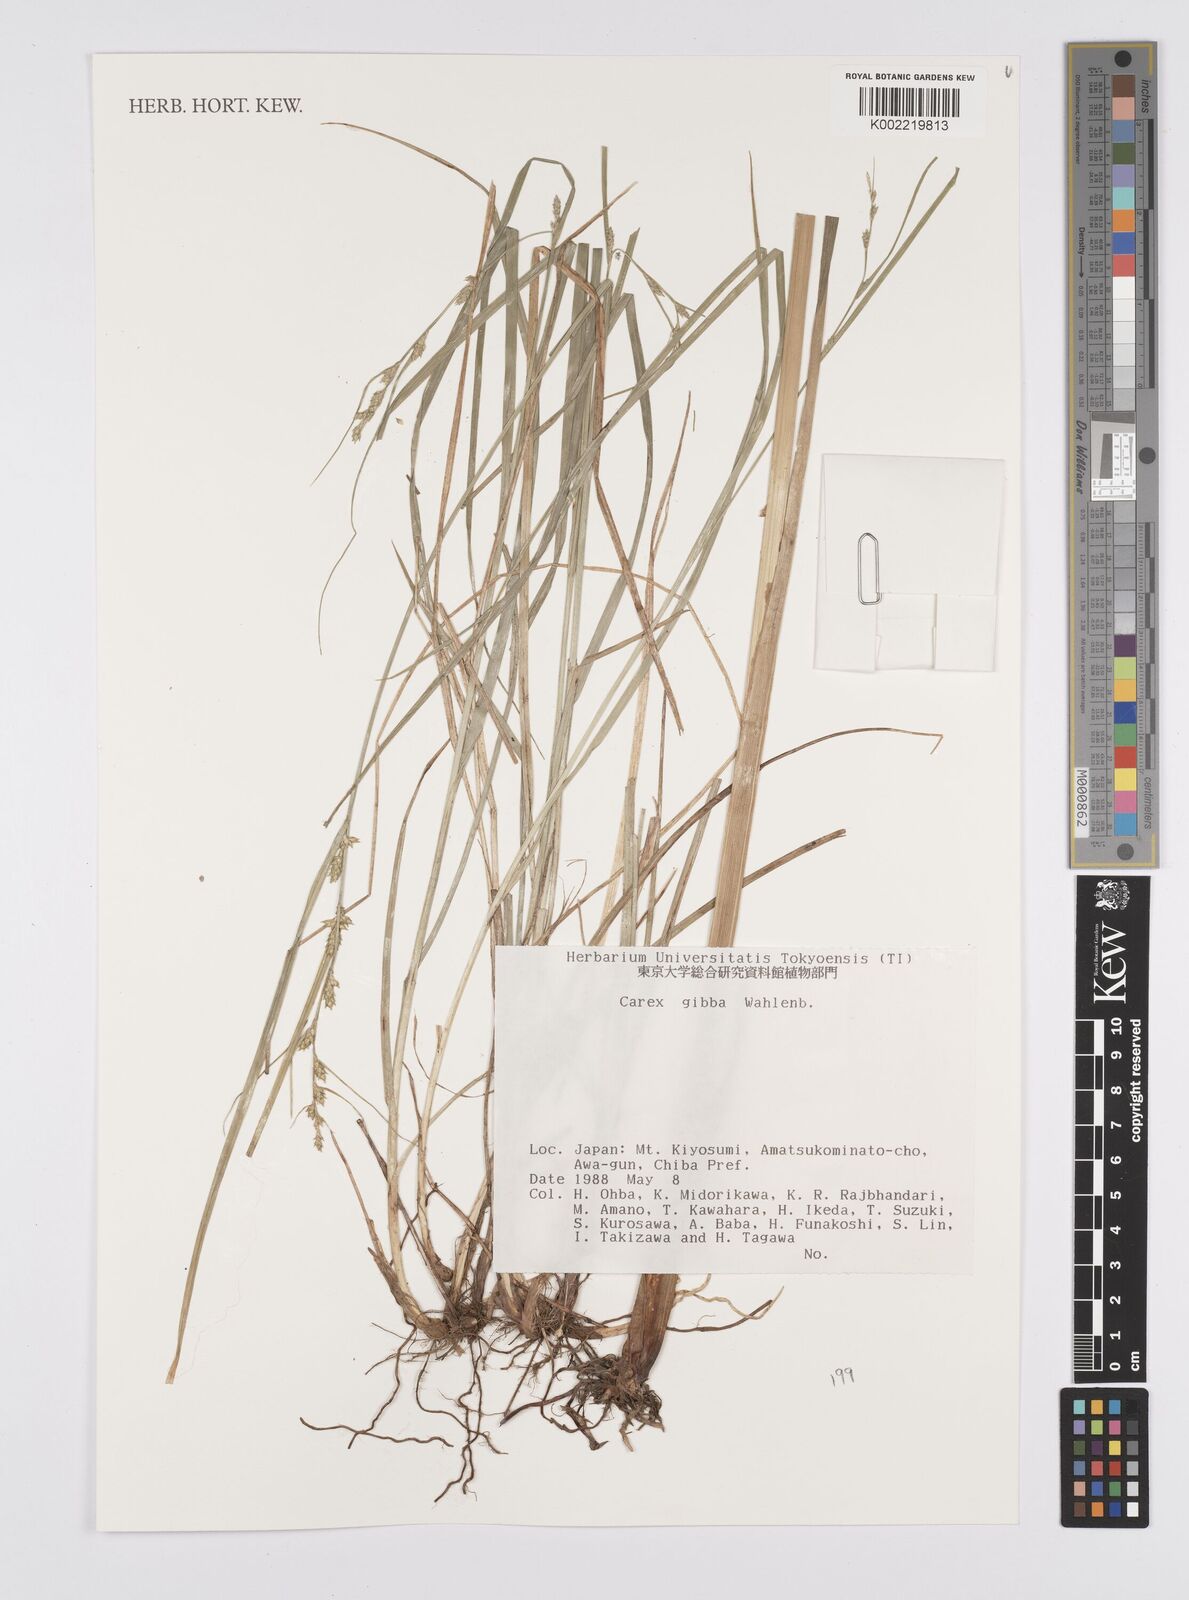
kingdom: Plantae
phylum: Tracheophyta
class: Liliopsida
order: Poales
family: Cyperaceae
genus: Carex
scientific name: Carex gibba
